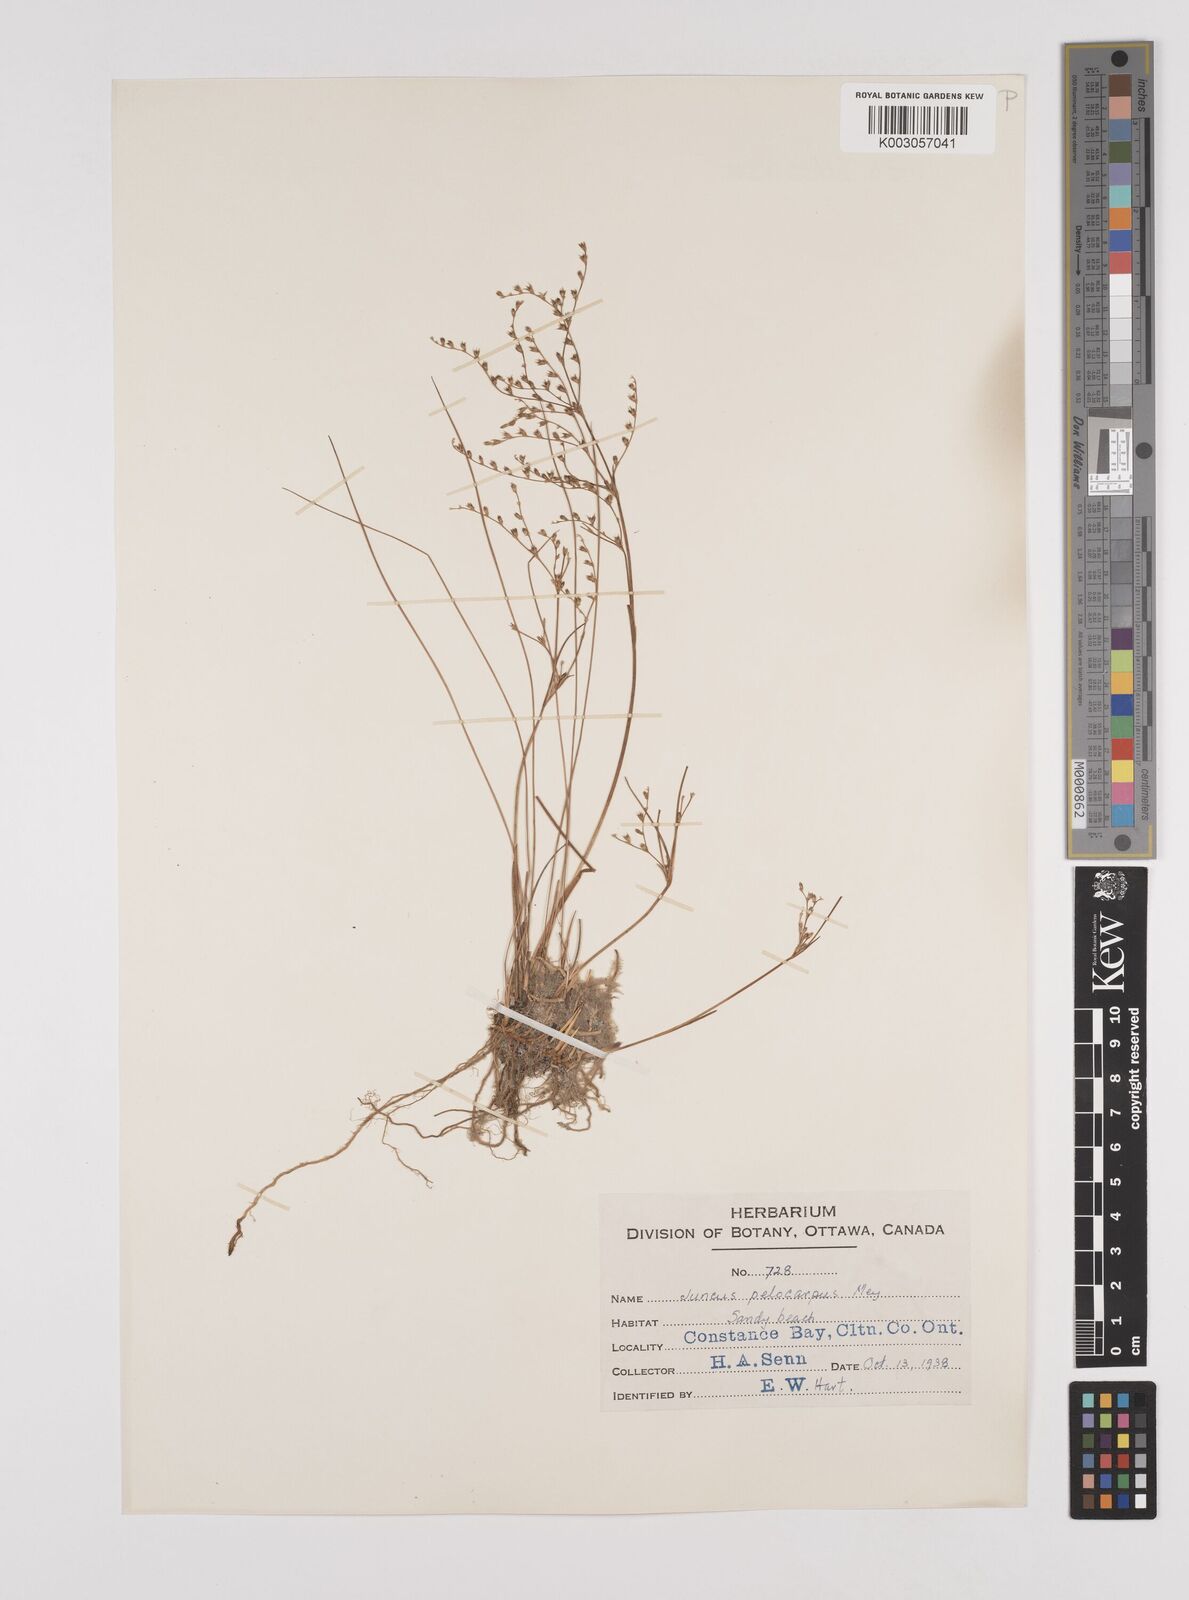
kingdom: Plantae
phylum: Tracheophyta
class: Liliopsida
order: Poales
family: Juncaceae
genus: Juncus
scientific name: Juncus pelocarpus
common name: Brown-fruited rush
